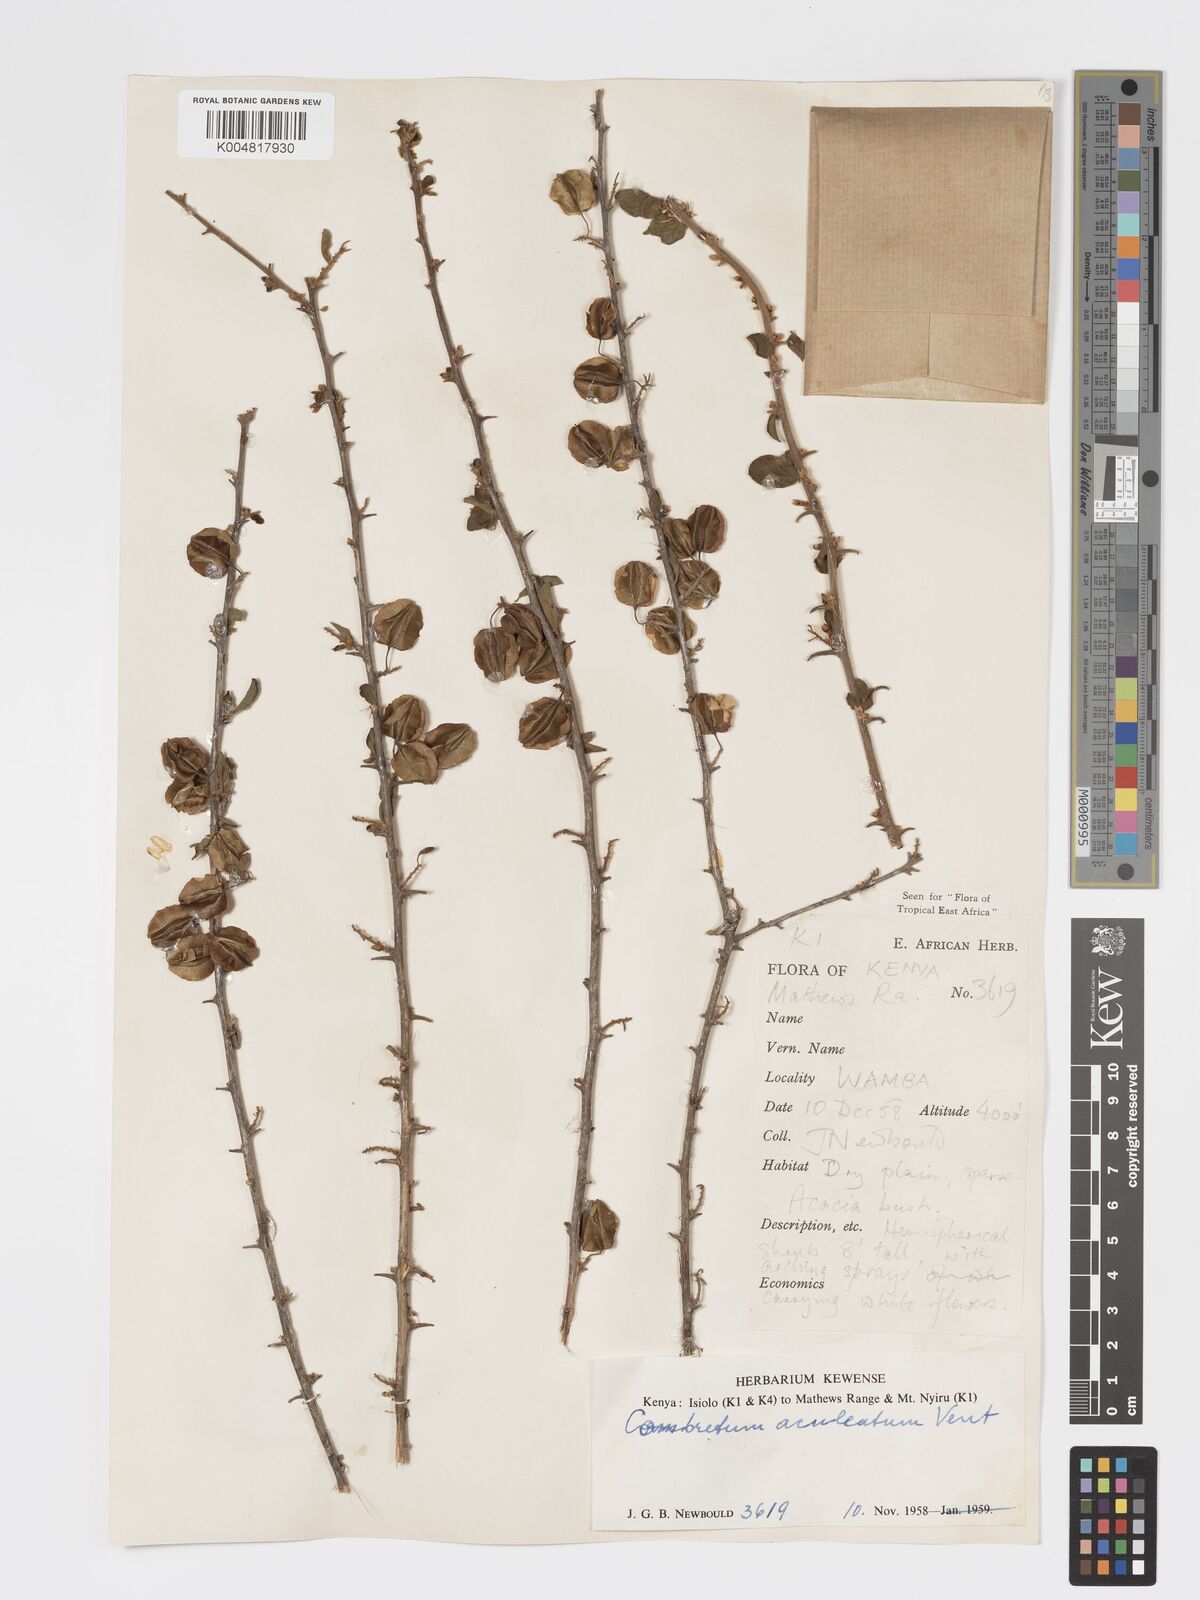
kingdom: Plantae
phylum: Tracheophyta
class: Magnoliopsida
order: Myrtales
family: Combretaceae
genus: Combretum
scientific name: Combretum aculeatum
